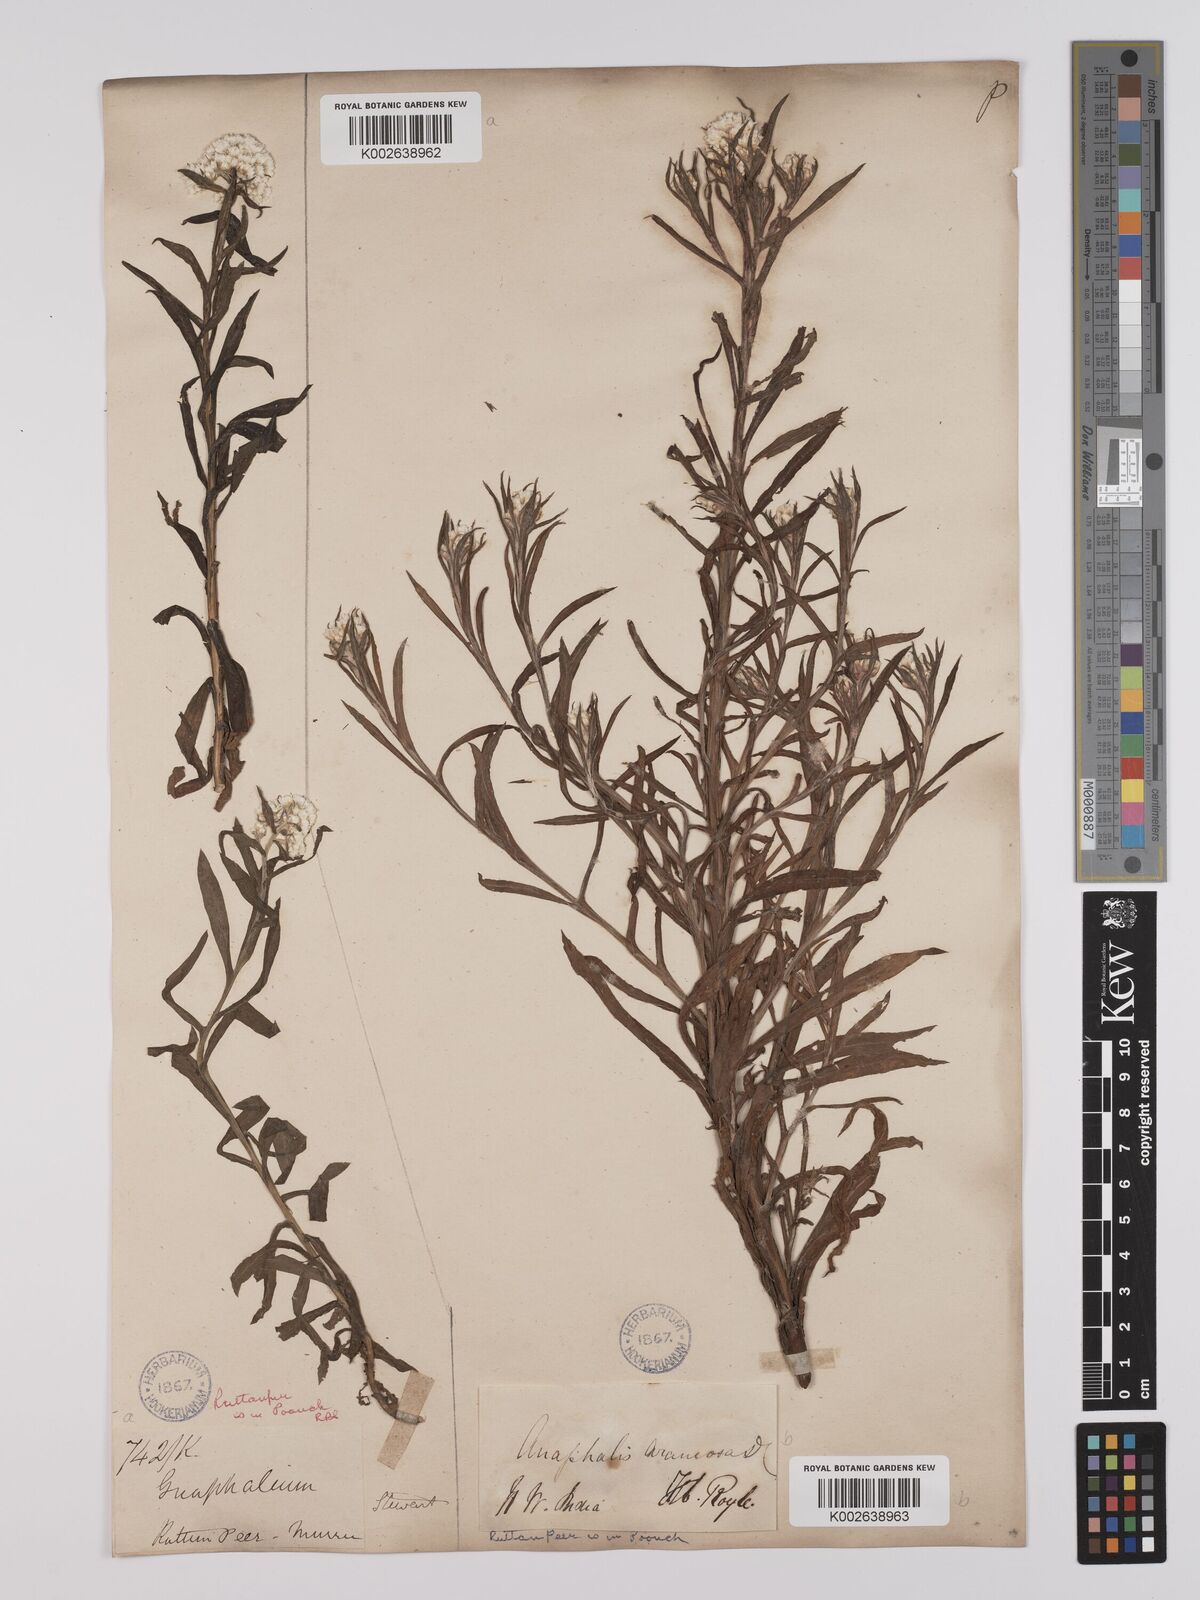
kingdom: Plantae
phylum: Tracheophyta
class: Magnoliopsida
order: Asterales
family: Asteraceae
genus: Anaphalis
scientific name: Anaphalis busua
